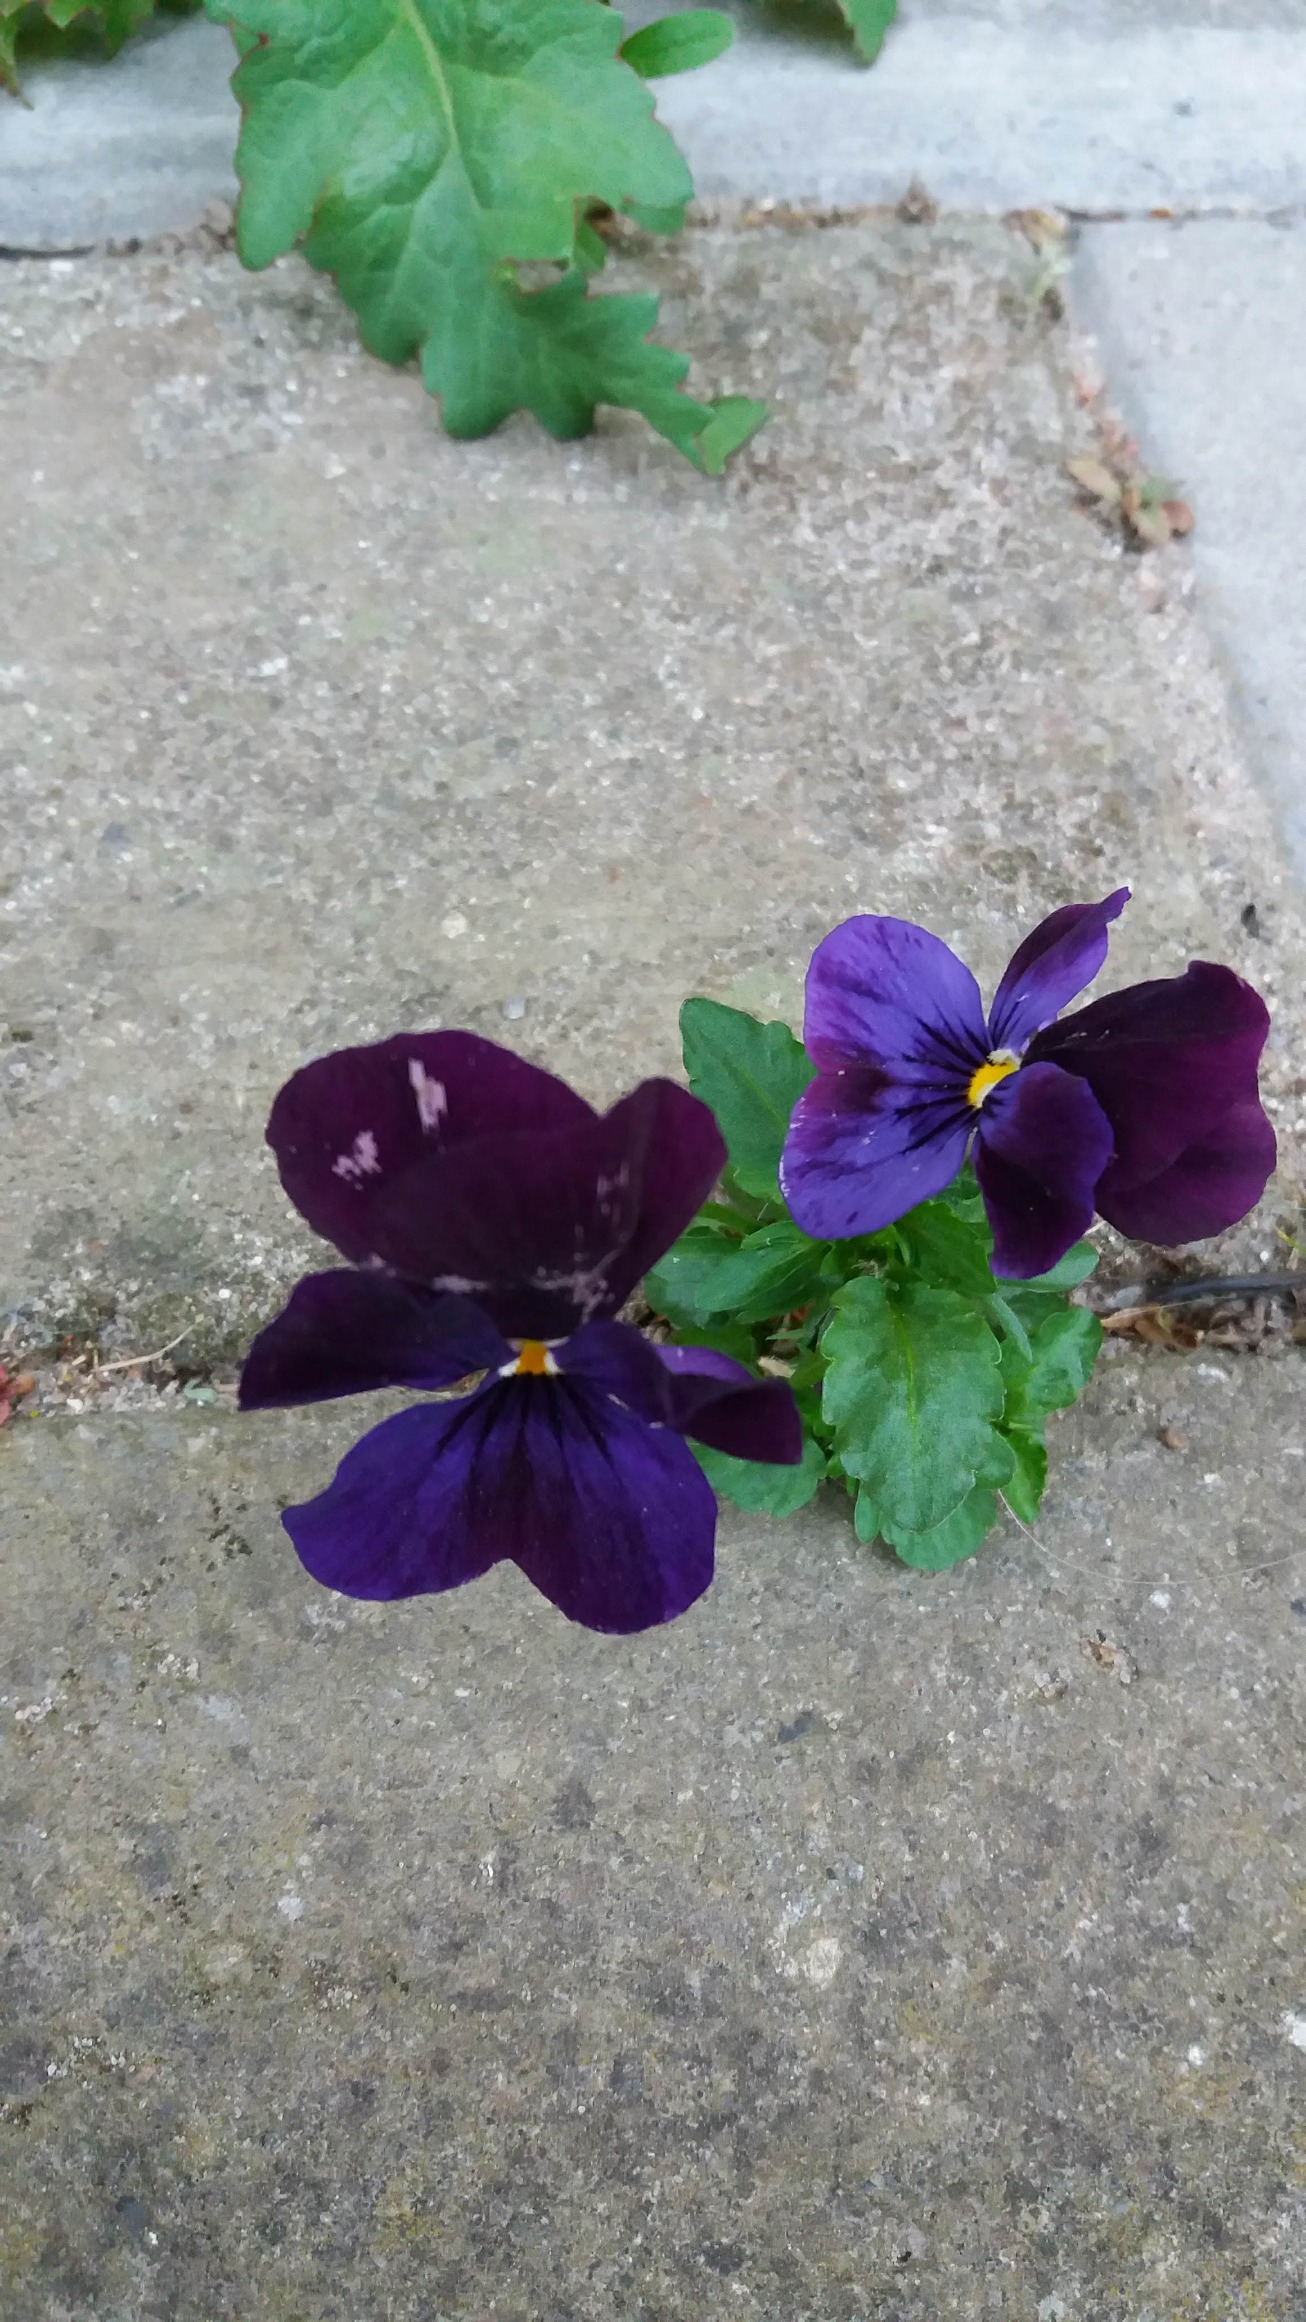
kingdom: Plantae
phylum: Tracheophyta
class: Magnoliopsida
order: Malpighiales
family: Violaceae
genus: Viola
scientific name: Viola wittrockiana
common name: Have-stedmoderblomst
